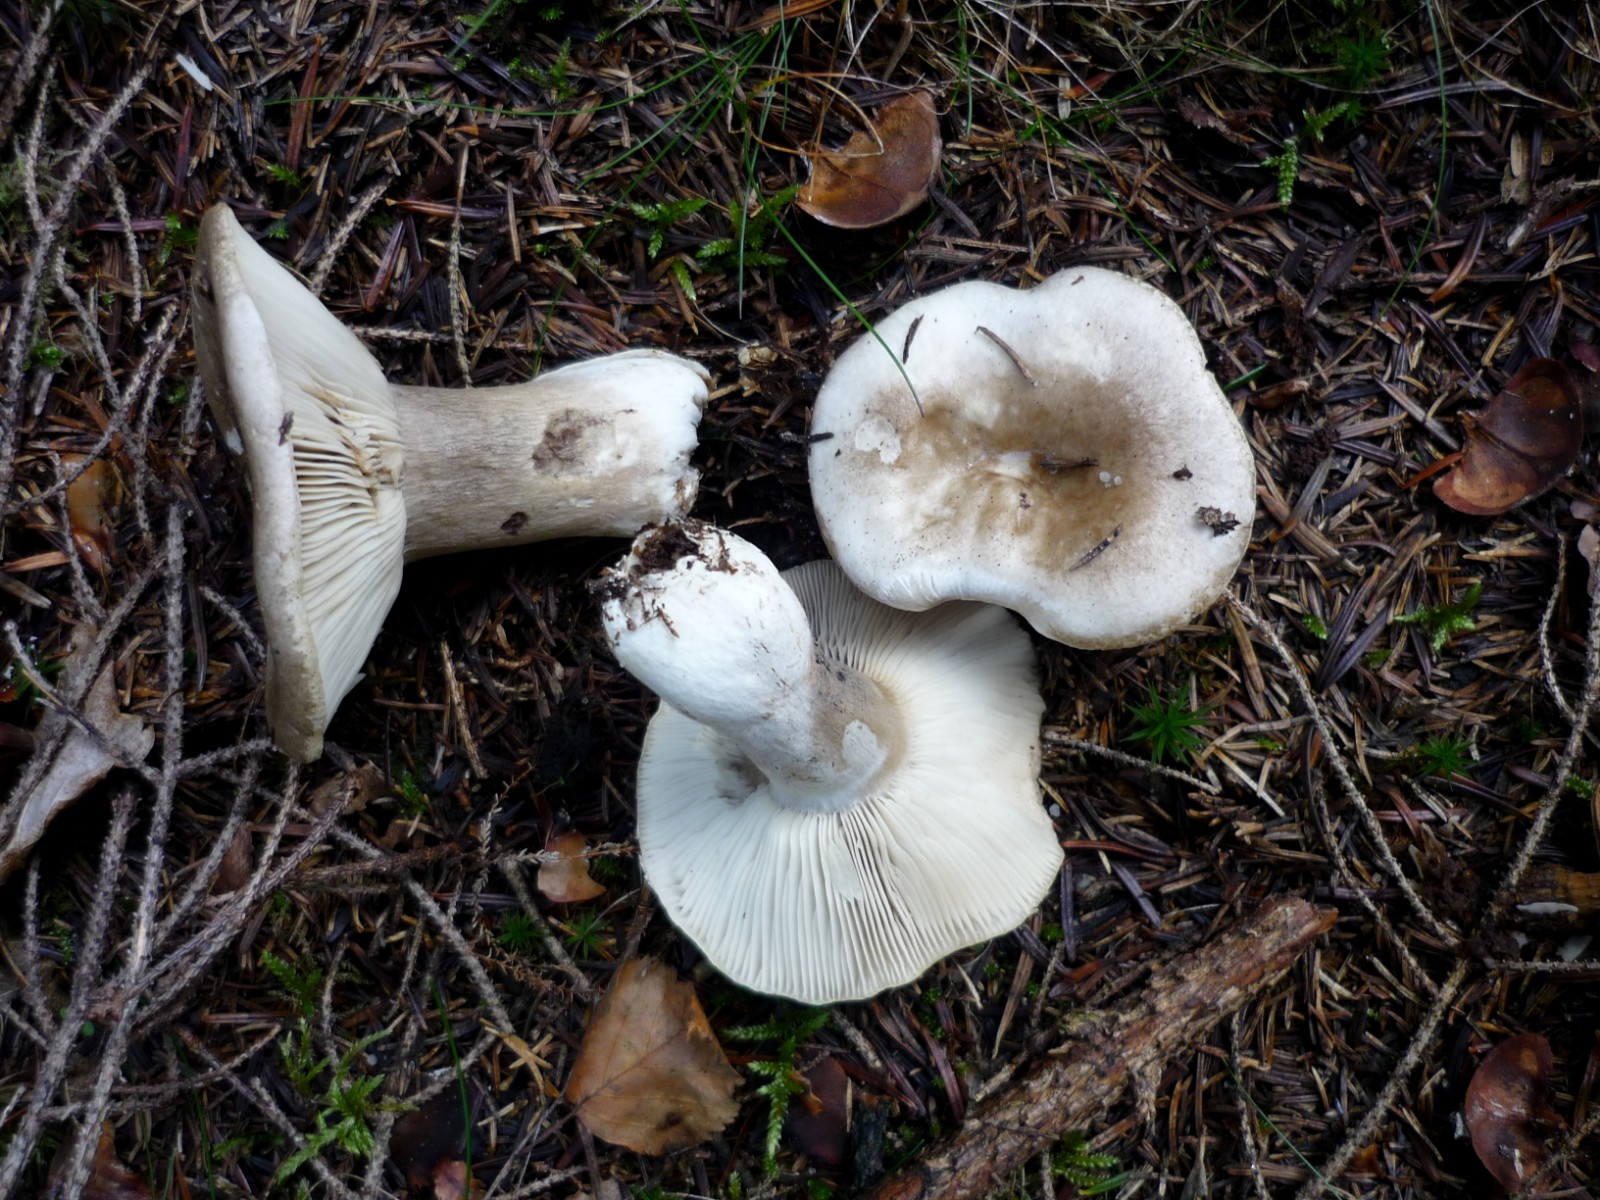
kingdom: Fungi
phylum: Basidiomycota
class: Agaricomycetes
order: Russulales
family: Russulaceae
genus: Russula
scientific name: Russula densifolia
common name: tætbladet skørhat
